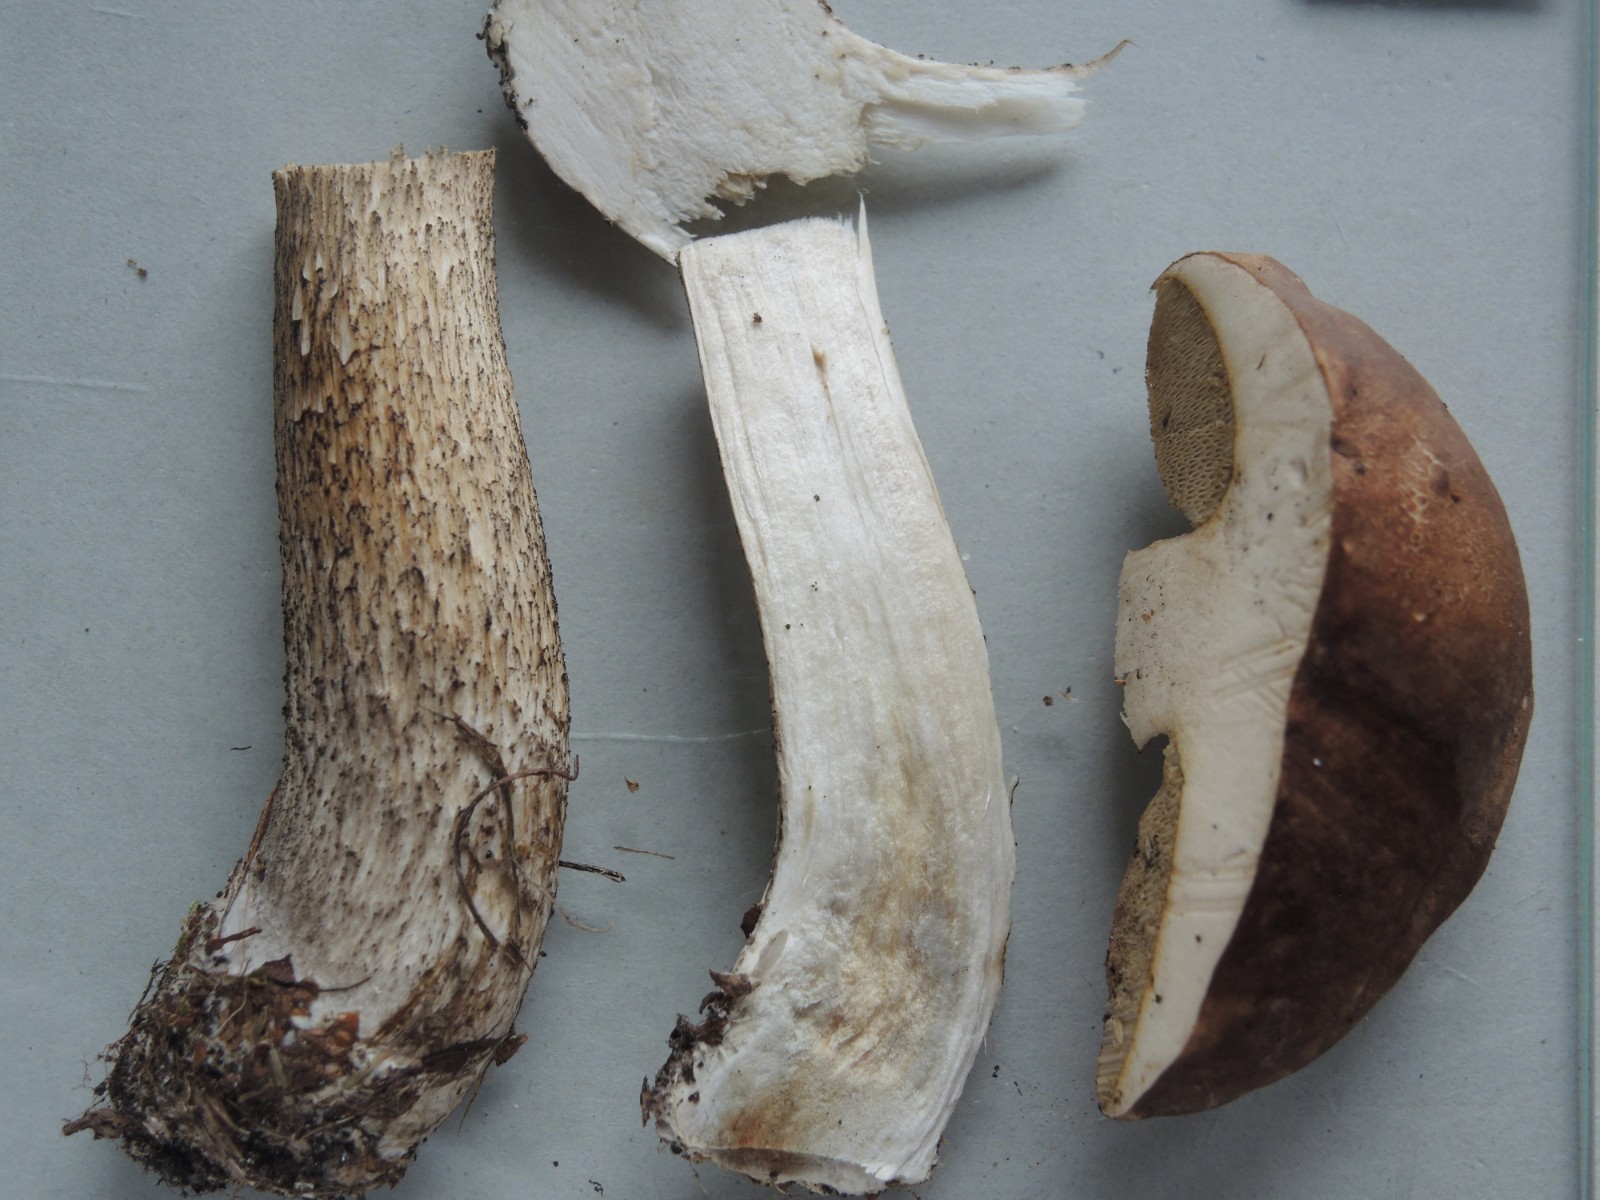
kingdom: Fungi
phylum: Basidiomycota
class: Agaricomycetes
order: Boletales
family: Boletaceae
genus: Leccinum
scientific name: Leccinum scabrum
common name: brun skælrørhat
